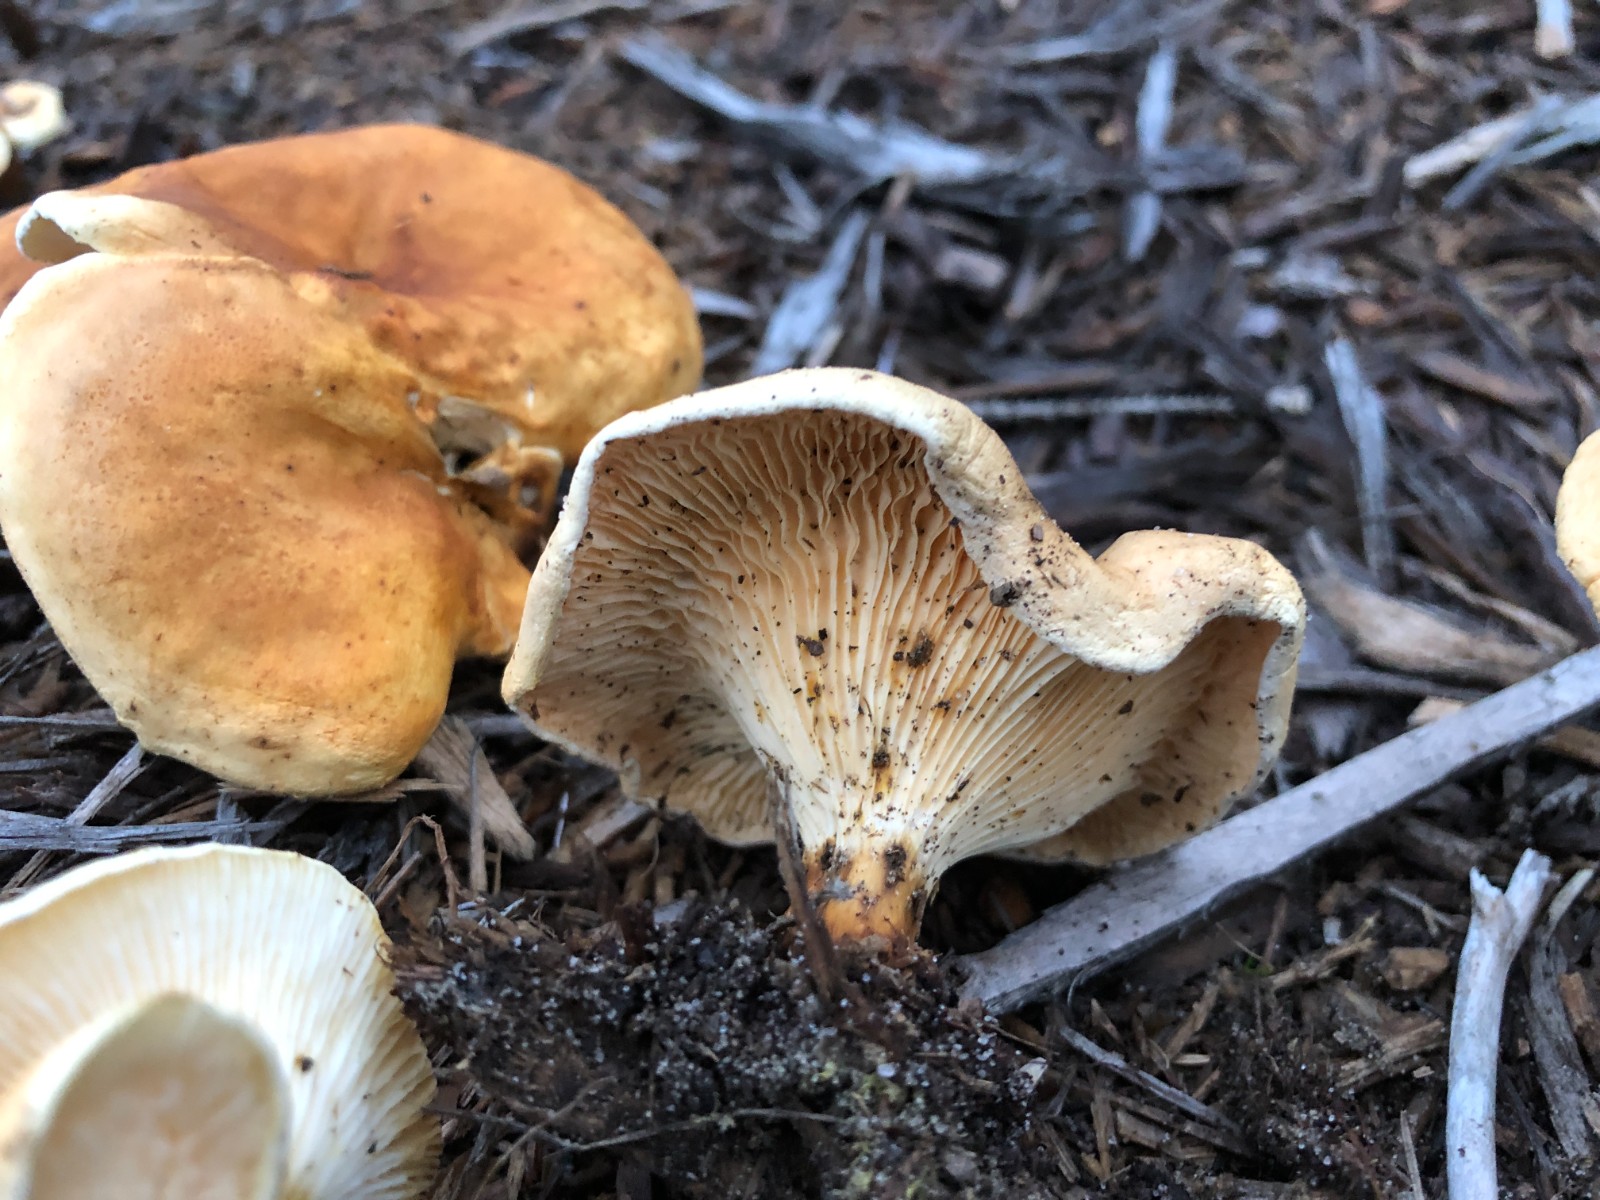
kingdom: Fungi
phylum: Basidiomycota
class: Agaricomycetes
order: Boletales
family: Hygrophoropsidaceae
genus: Hygrophoropsis
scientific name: Hygrophoropsis aurantiaca
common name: almindelig orangekantarel
